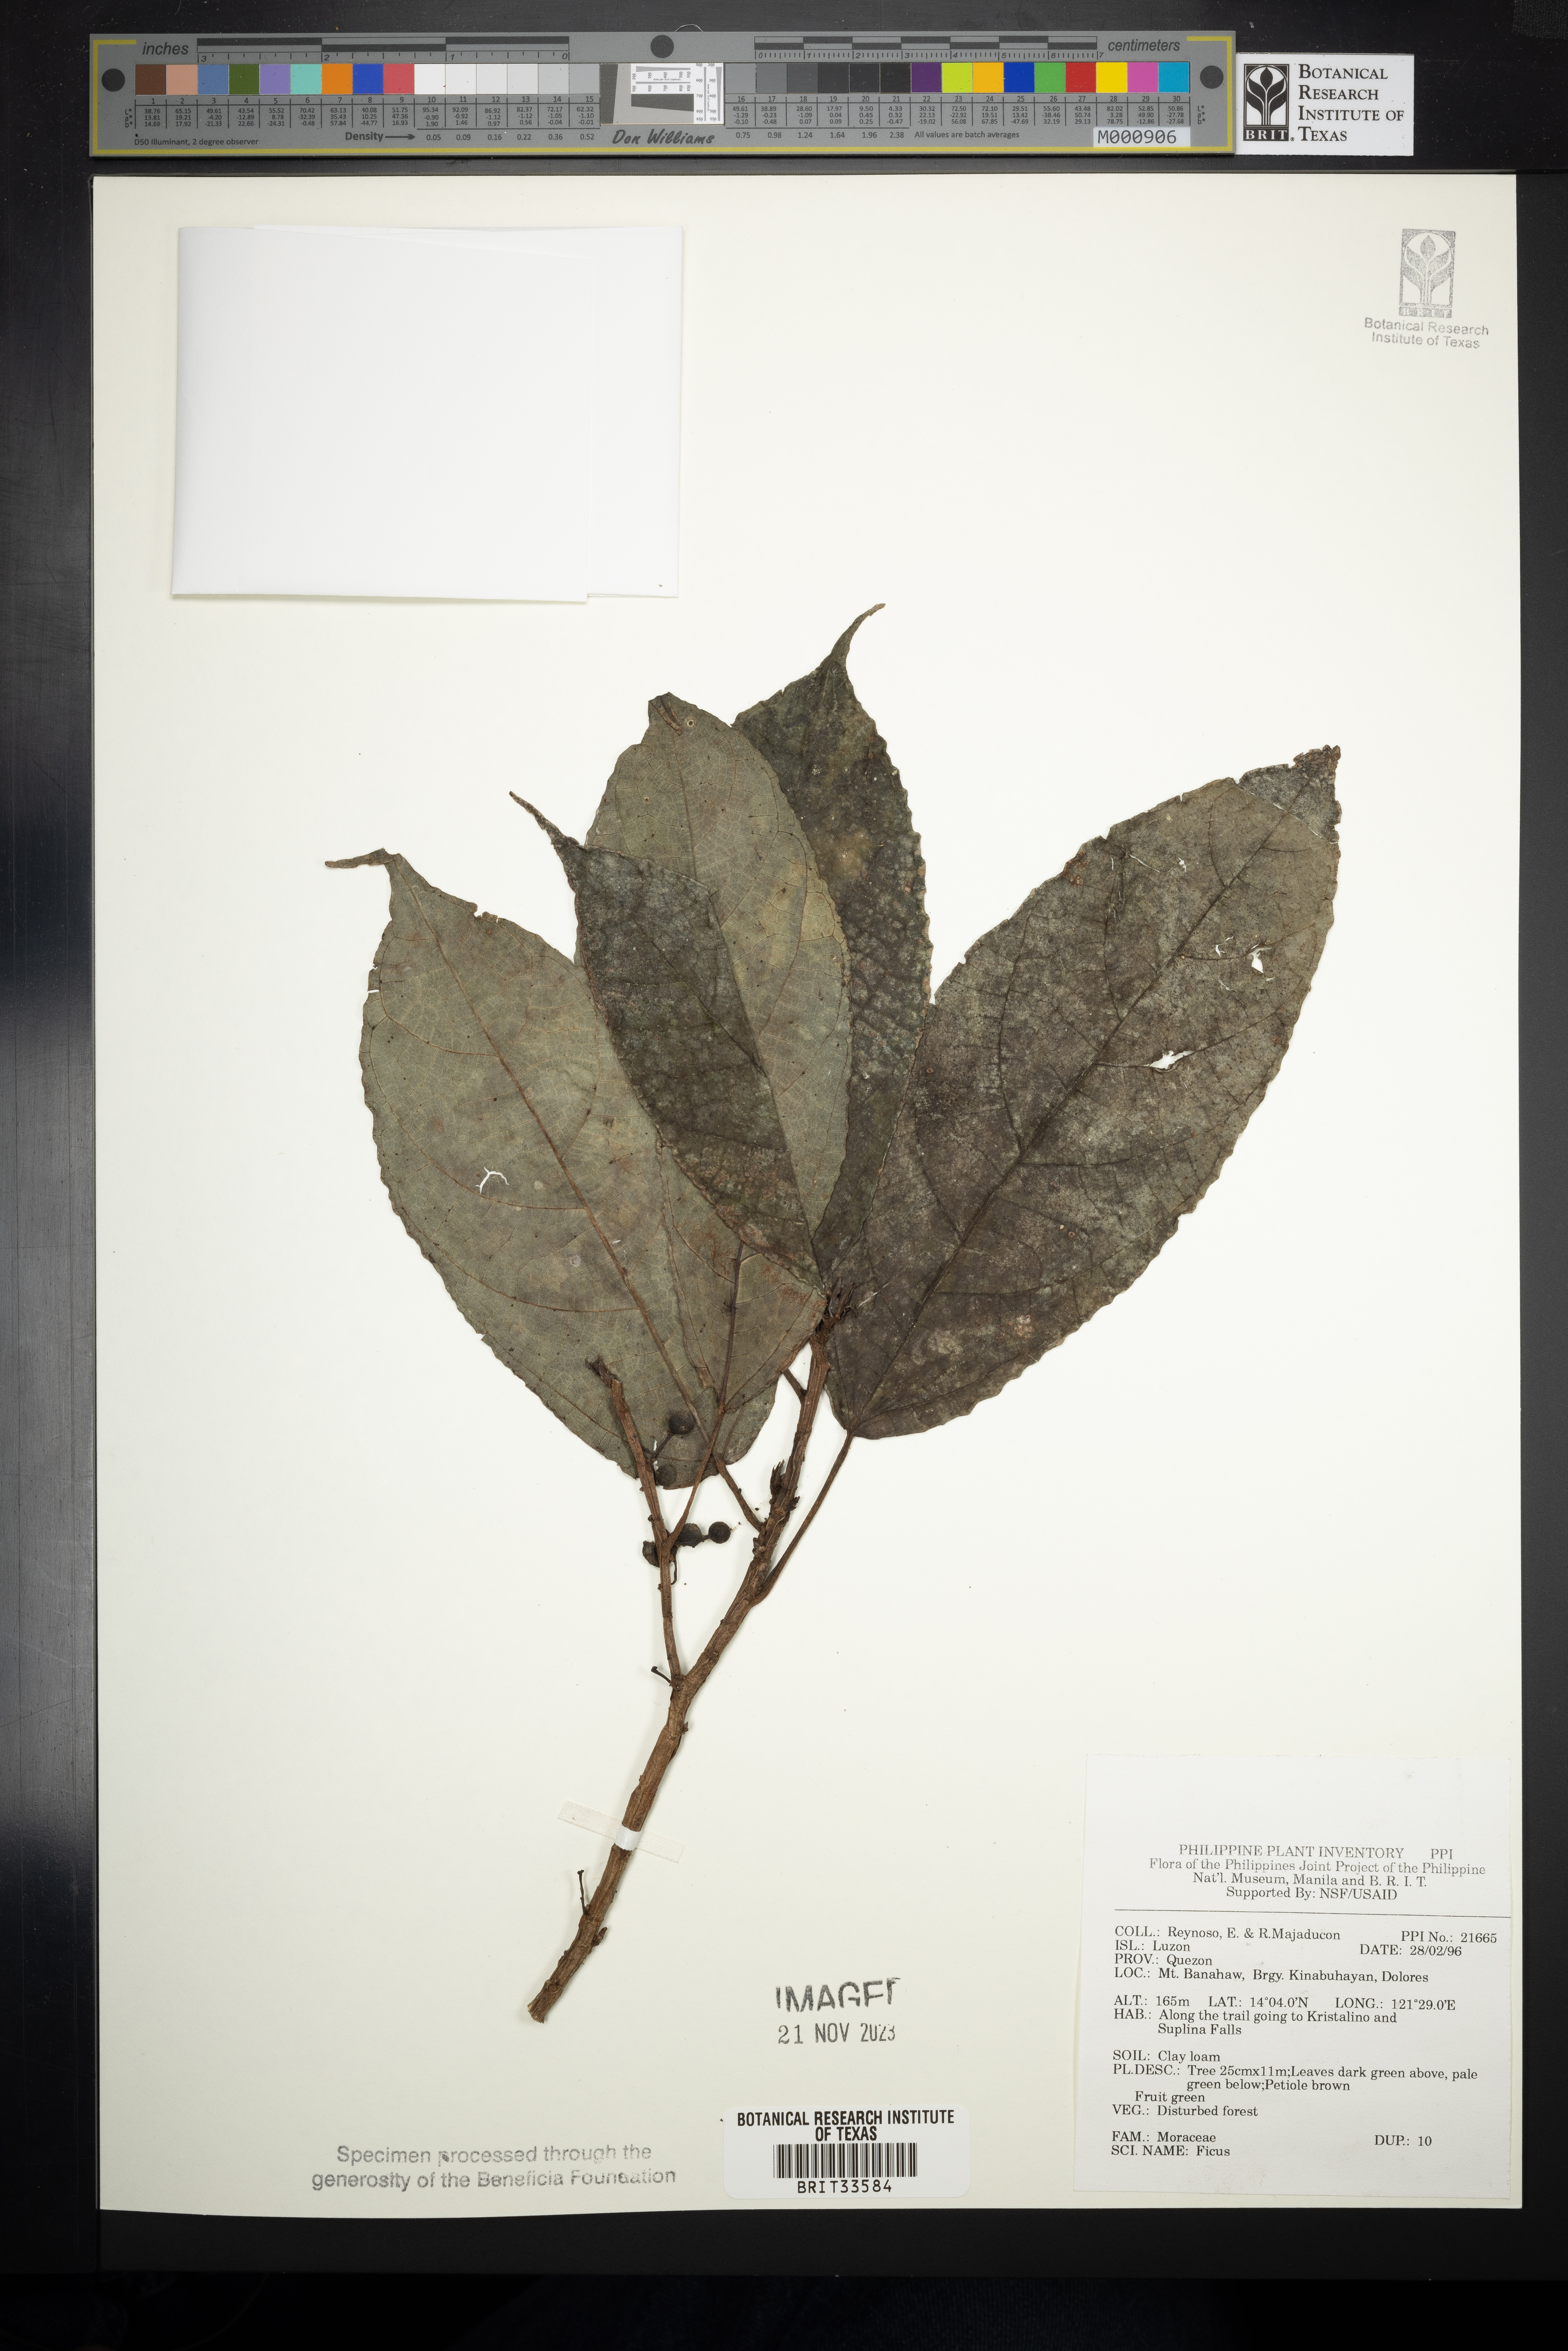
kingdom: Plantae
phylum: Tracheophyta
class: Magnoliopsida
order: Rosales
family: Moraceae
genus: Ficus
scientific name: Ficus
